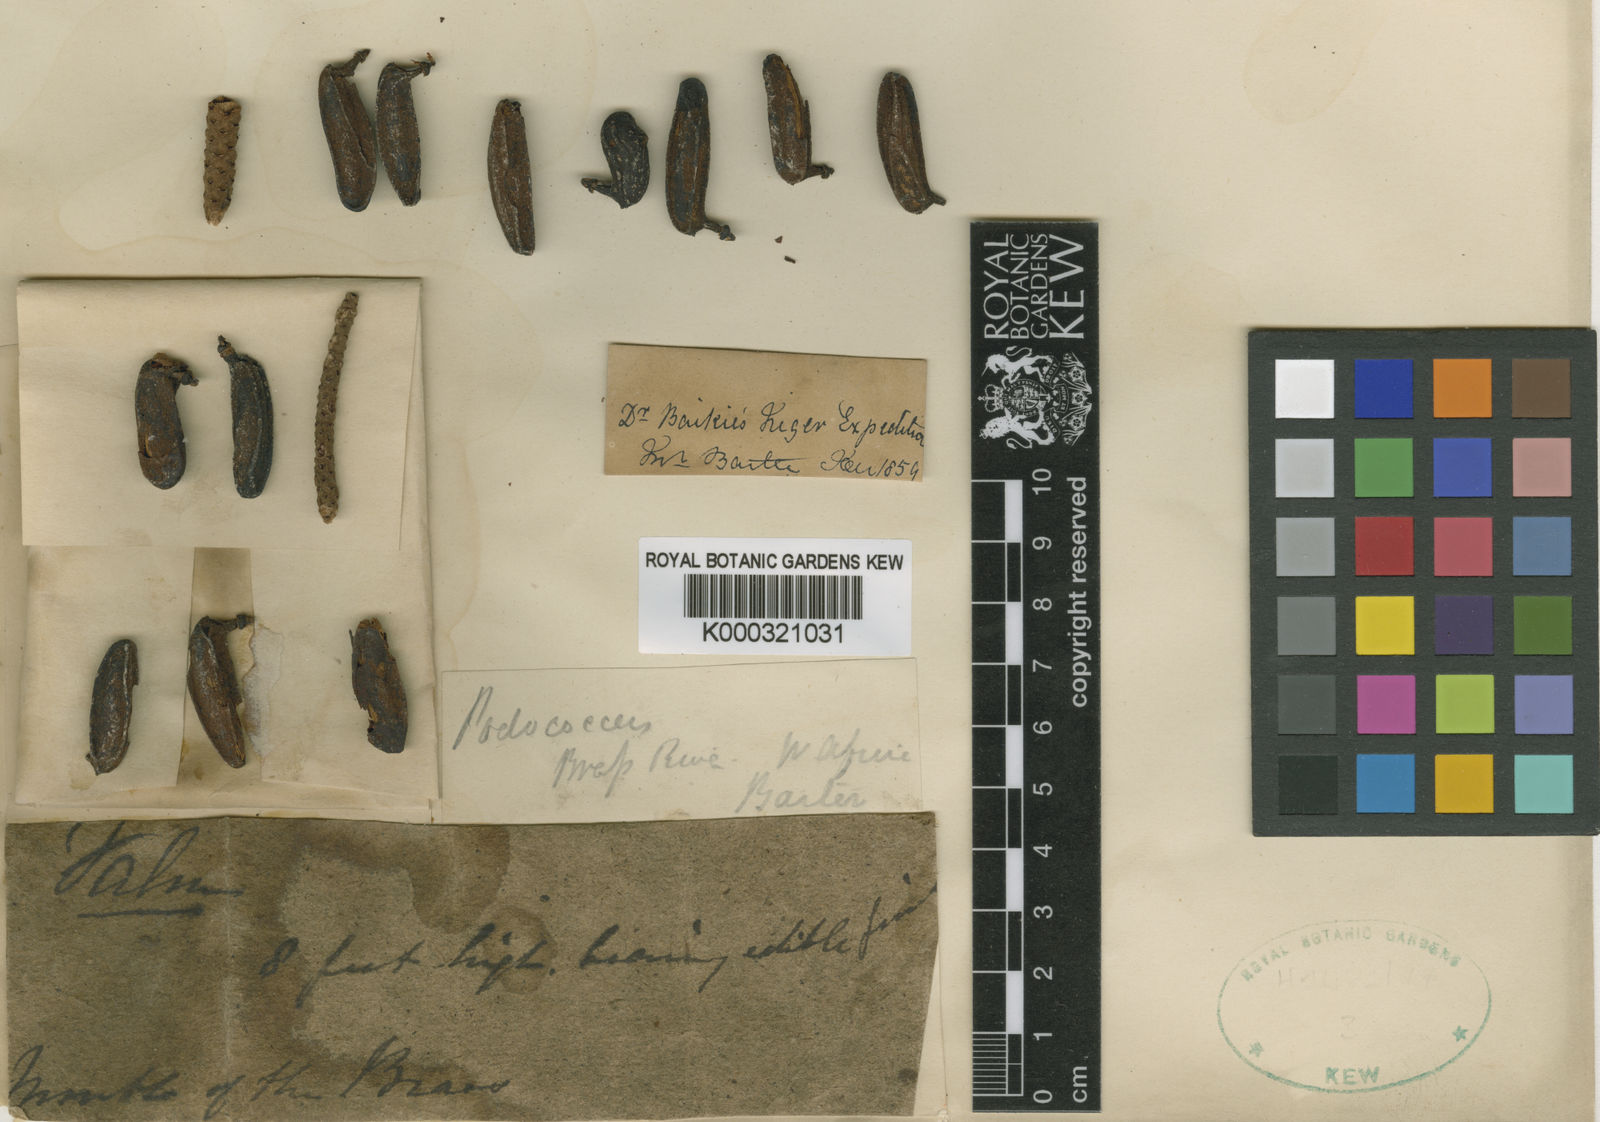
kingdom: Plantae
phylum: Tracheophyta
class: Liliopsida
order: Arecales
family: Arecaceae
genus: Podococcus
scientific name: Podococcus barteri
